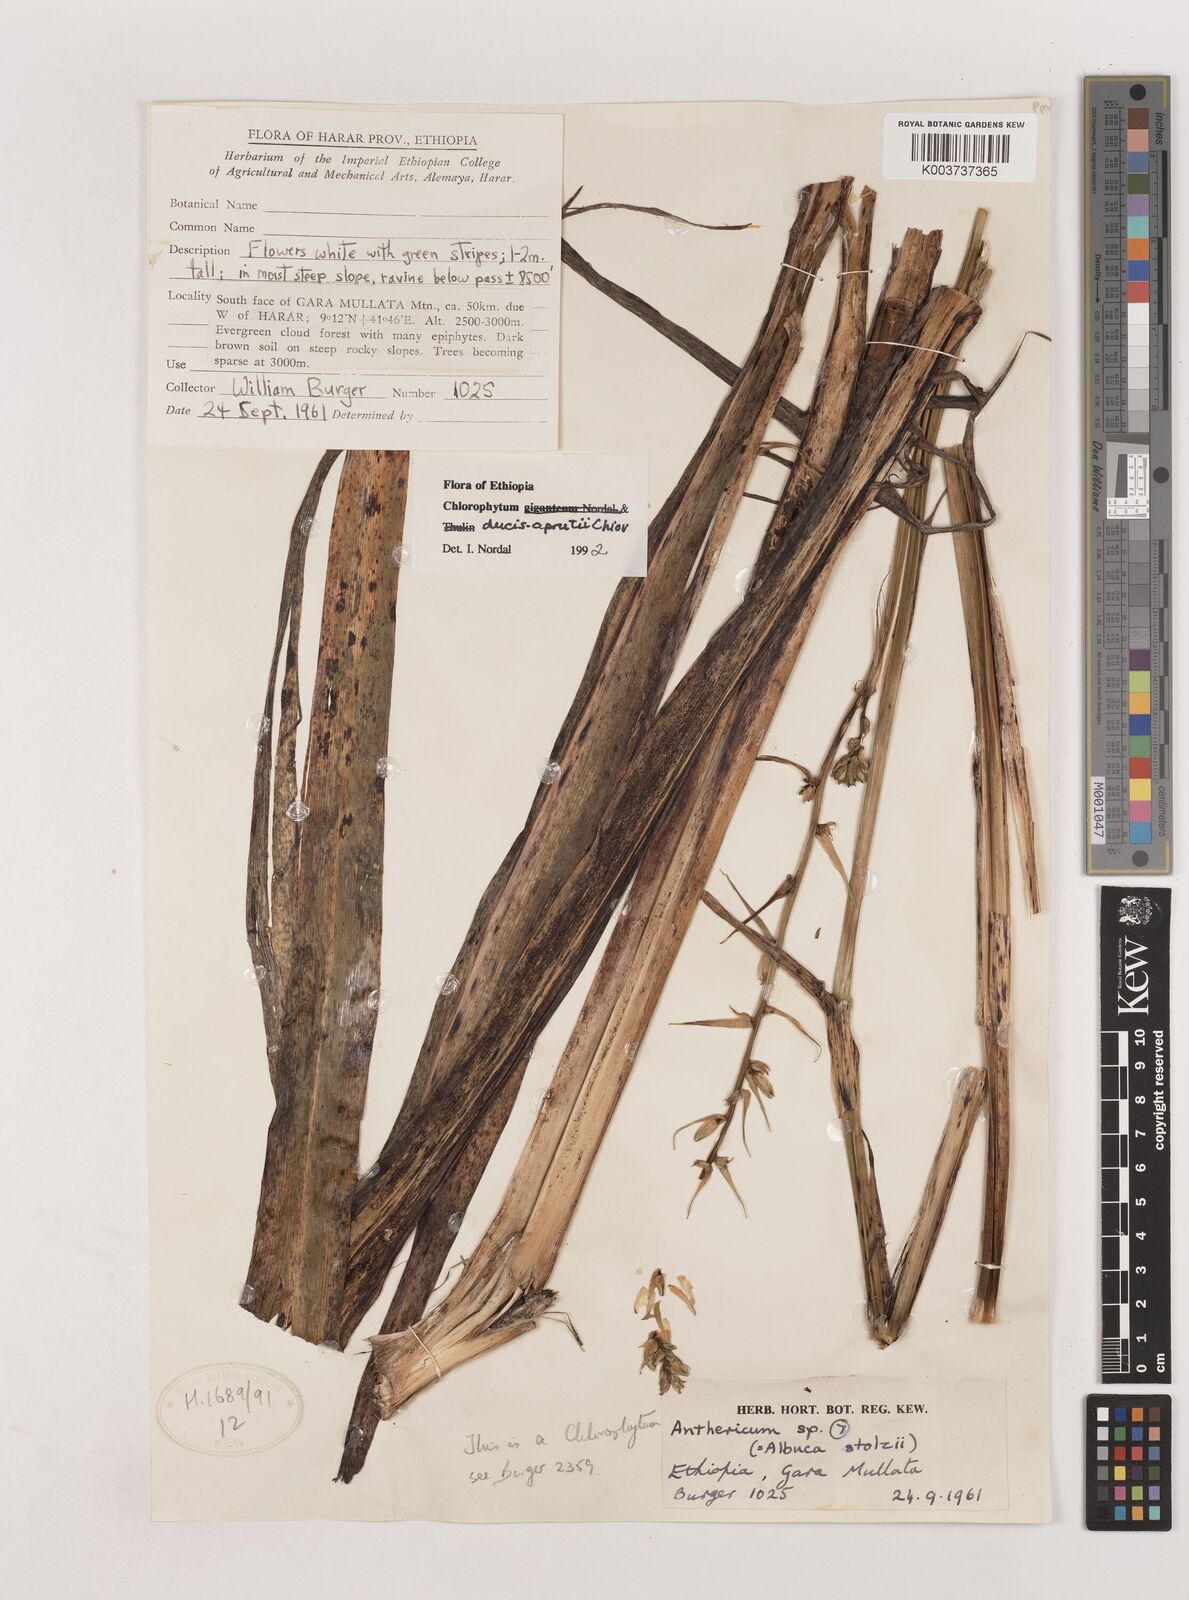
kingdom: Plantae
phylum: Tracheophyta
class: Liliopsida
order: Asparagales
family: Asparagaceae
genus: Chlorophytum
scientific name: Chlorophytum ducis-aprutii
